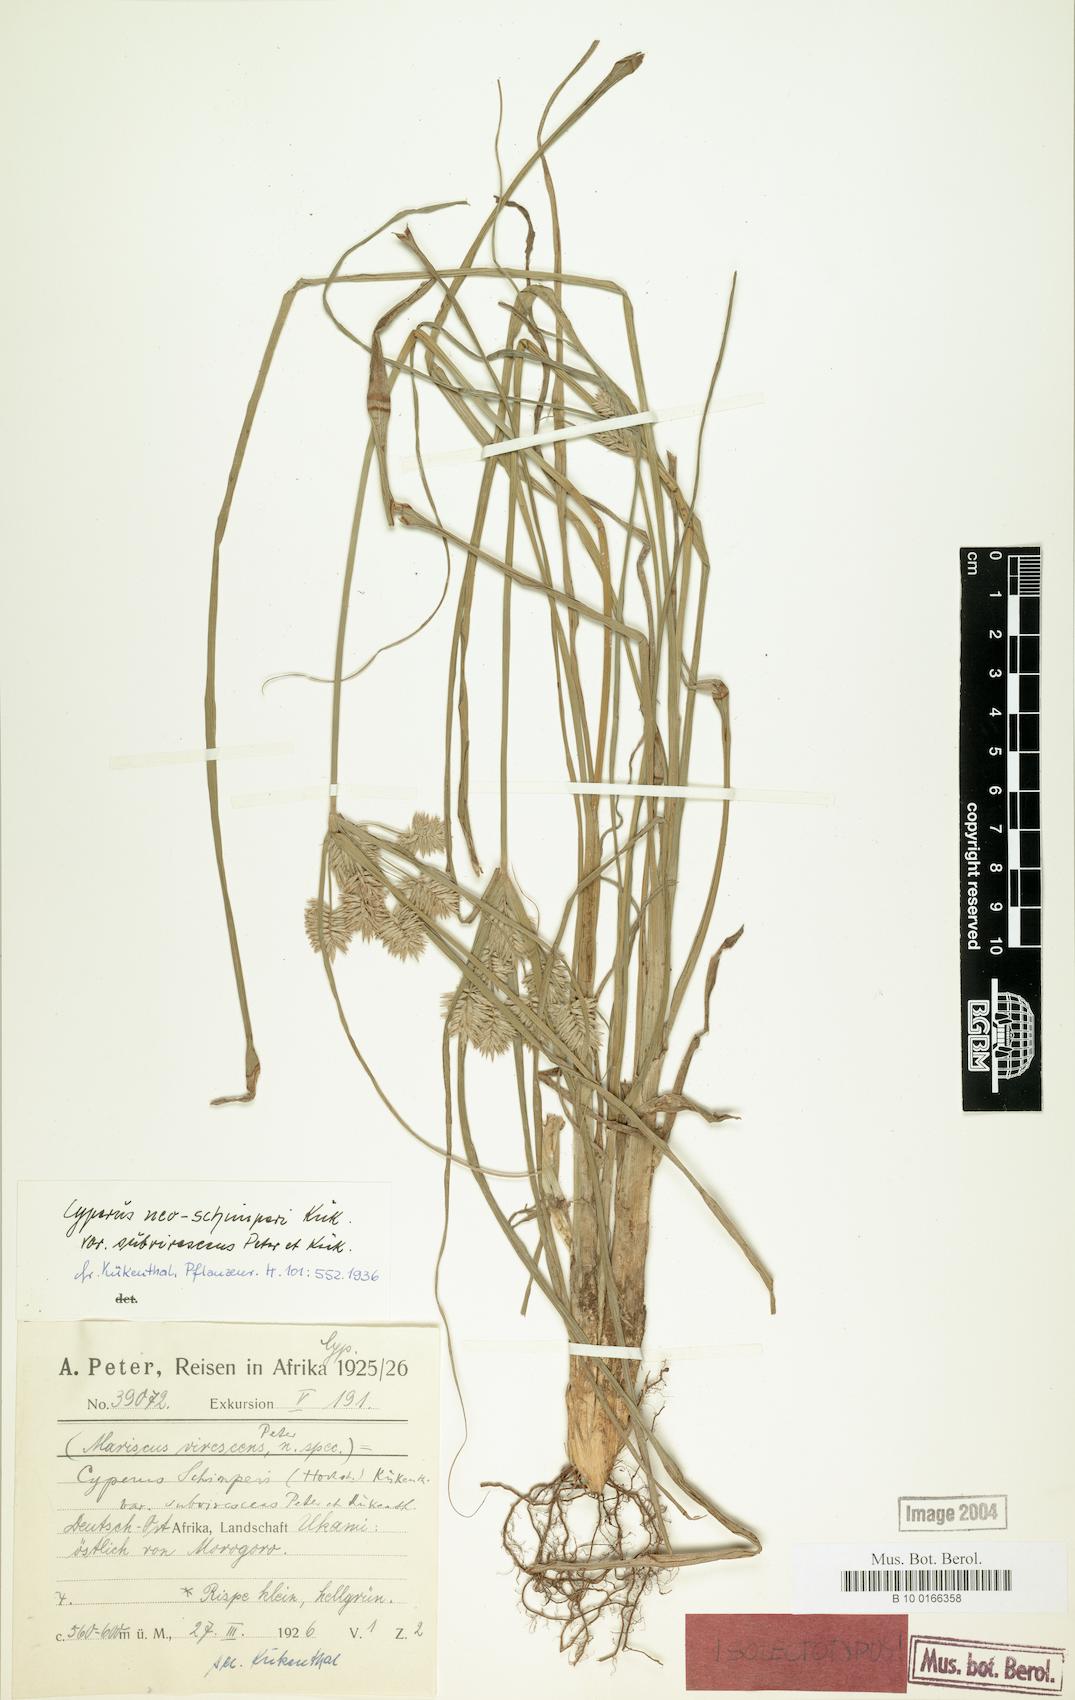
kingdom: Plantae
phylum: Tracheophyta
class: Liliopsida
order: Poales
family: Cyperaceae
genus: Cyperus
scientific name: Cyperus cruentus
